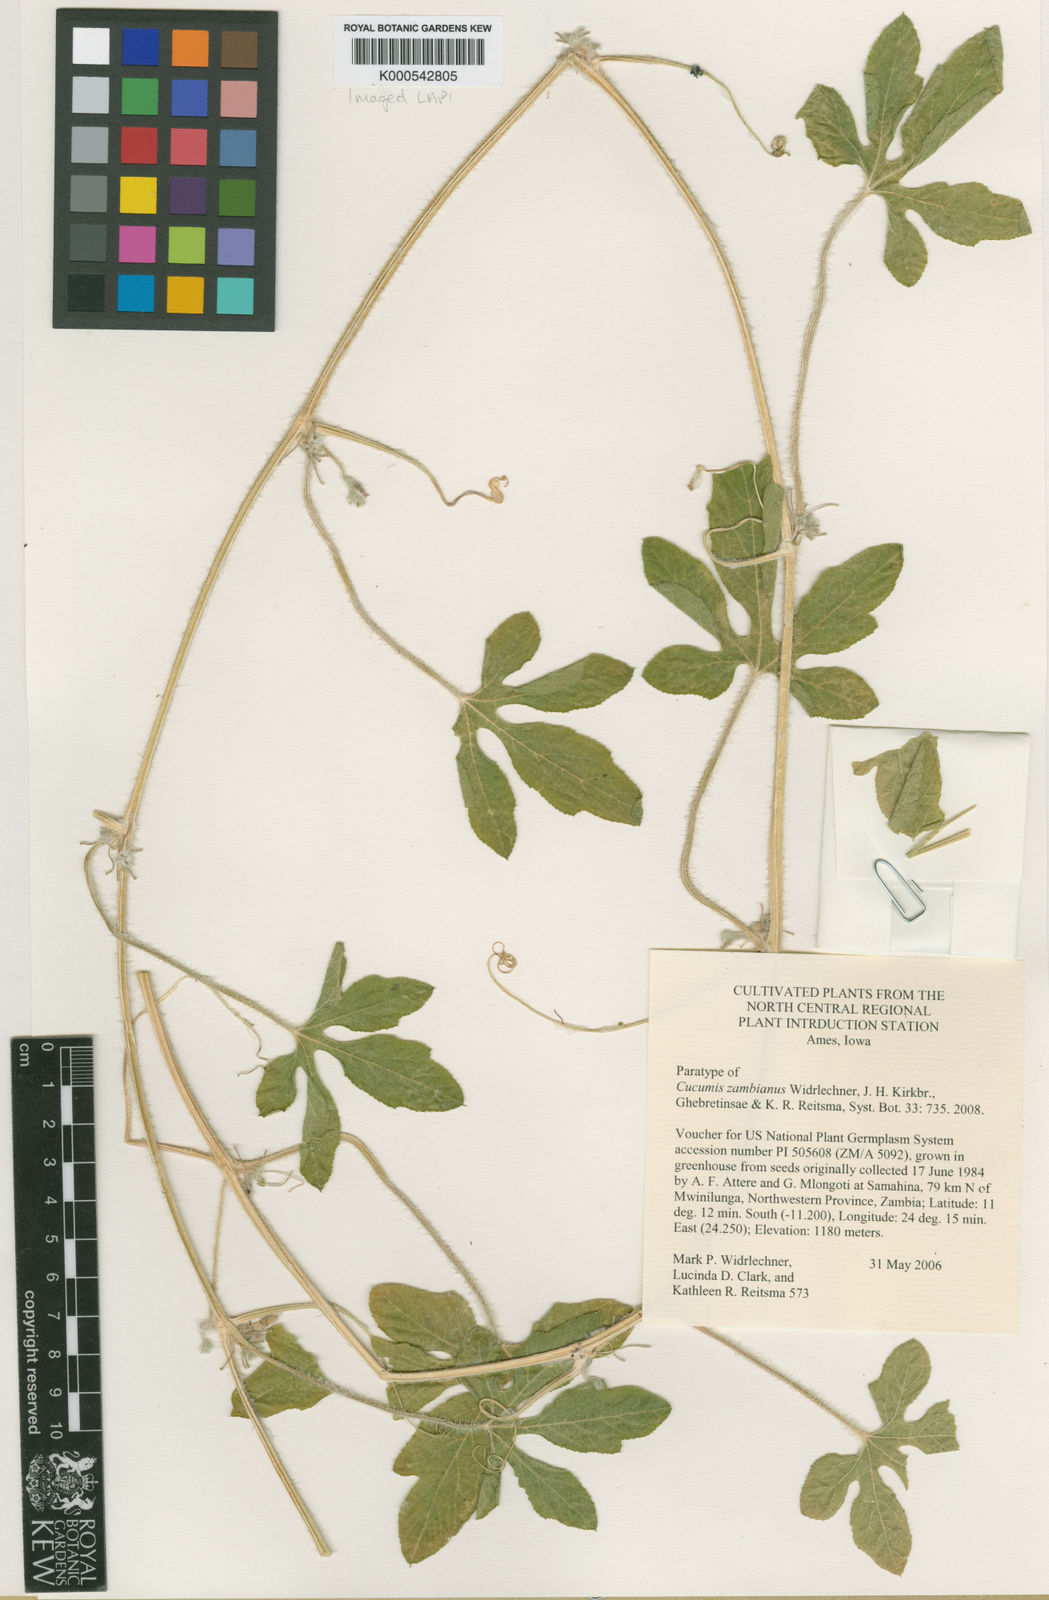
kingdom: Plantae
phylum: Tracheophyta
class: Magnoliopsida
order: Cucurbitales
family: Cucurbitaceae
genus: Cucumis
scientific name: Cucumis zambianus
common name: Katanda
